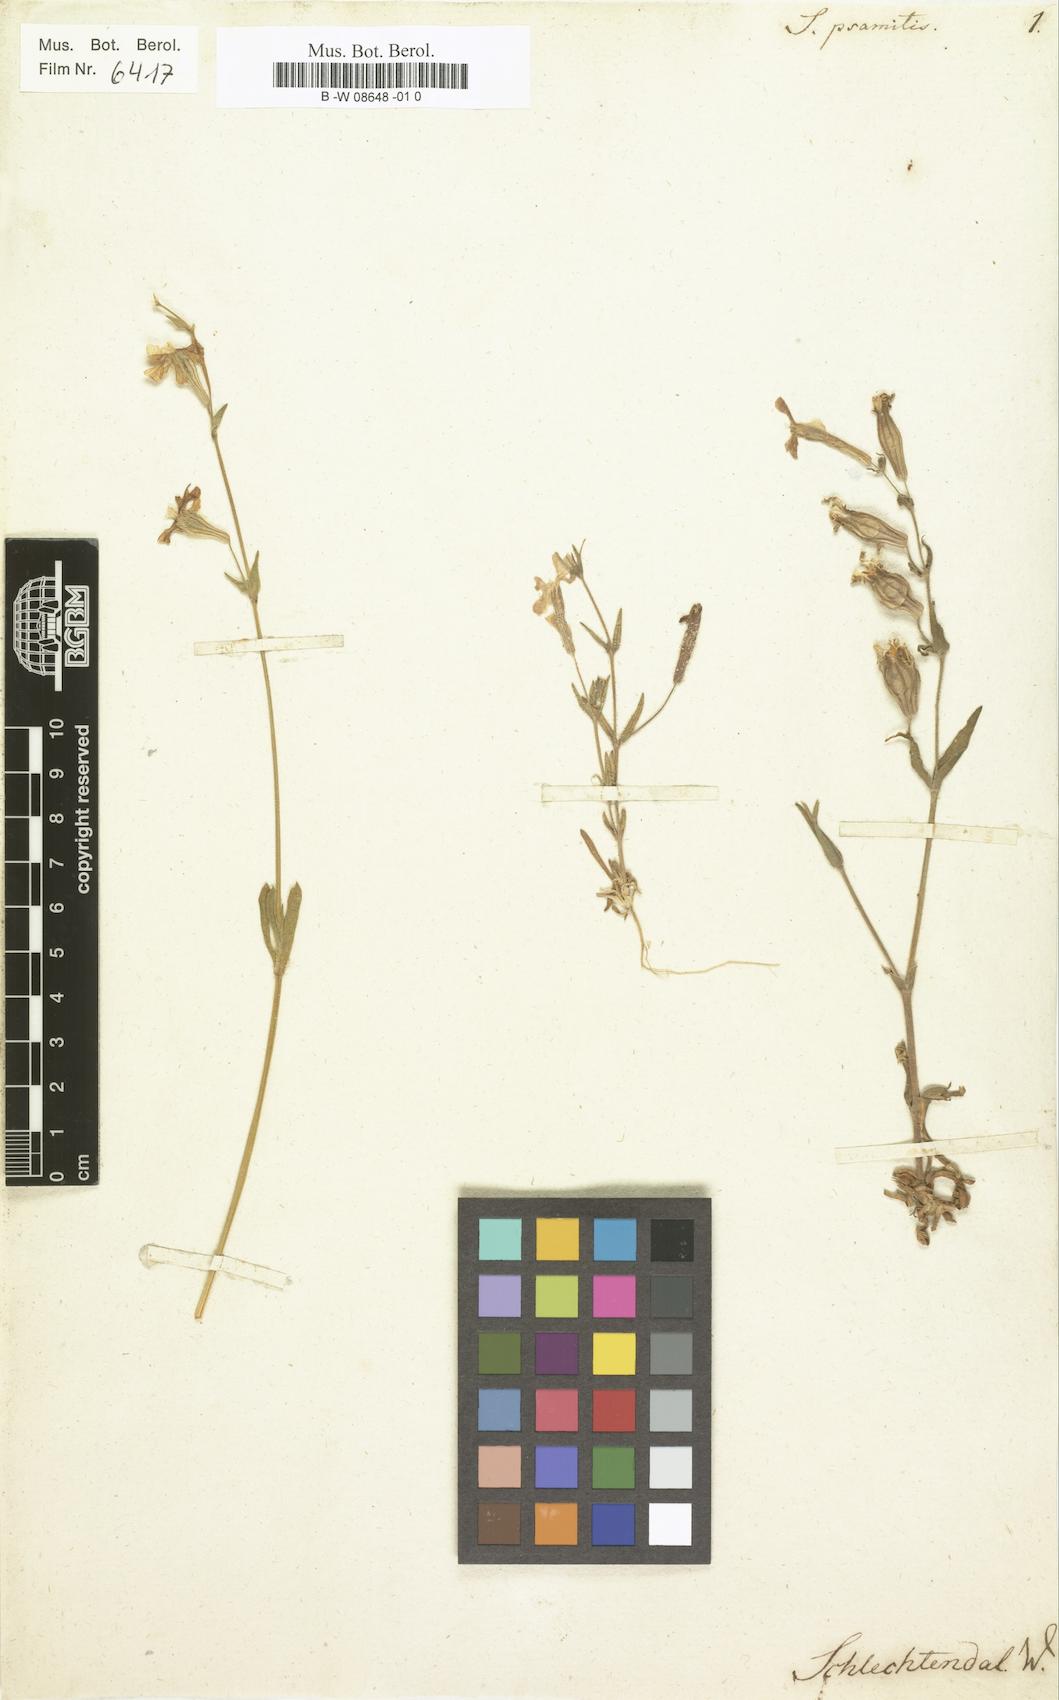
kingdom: Plantae
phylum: Tracheophyta
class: Magnoliopsida
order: Caryophyllales
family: Caryophyllaceae
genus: Silene
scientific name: Silene psammitis
